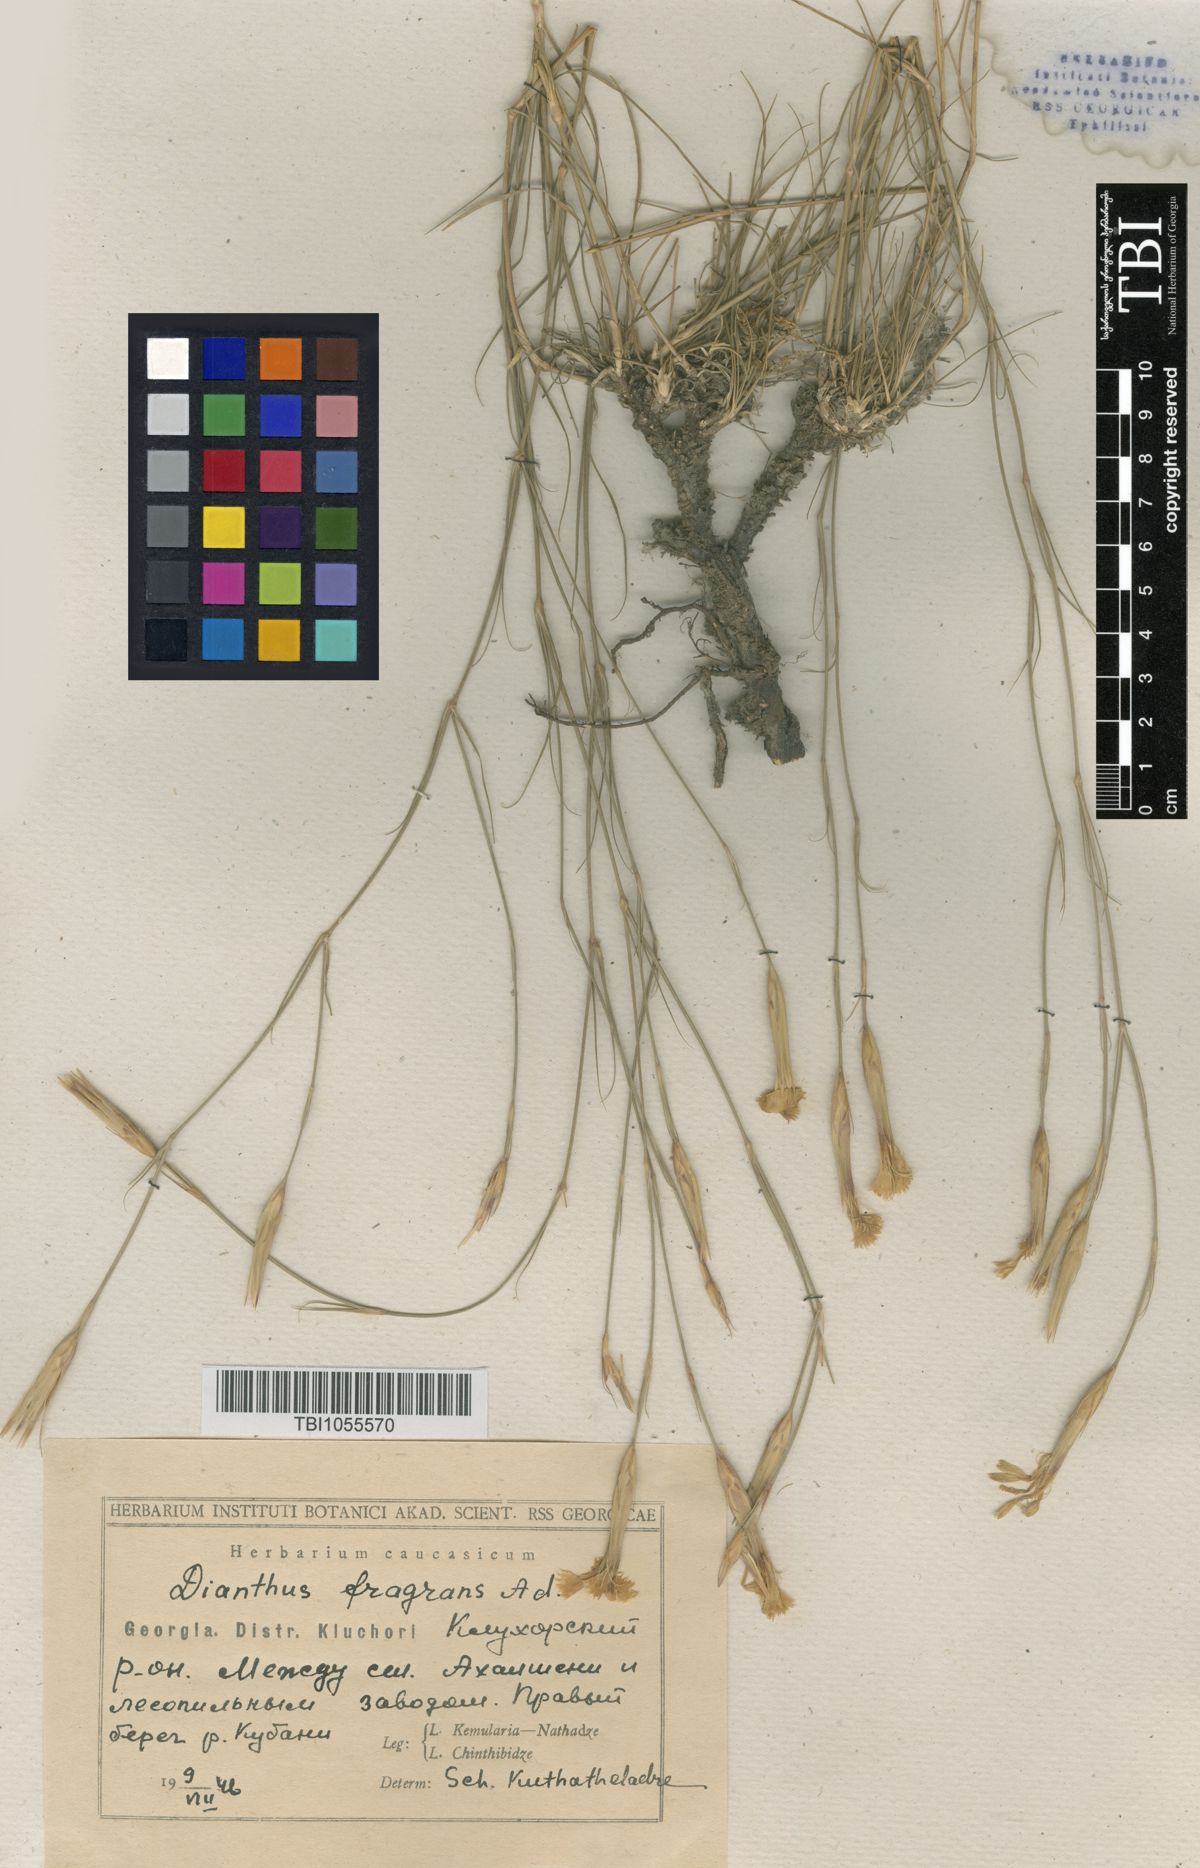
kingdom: Plantae
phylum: Tracheophyta
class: Magnoliopsida
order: Caryophyllales
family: Caryophyllaceae
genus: Dianthus
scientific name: Dianthus
